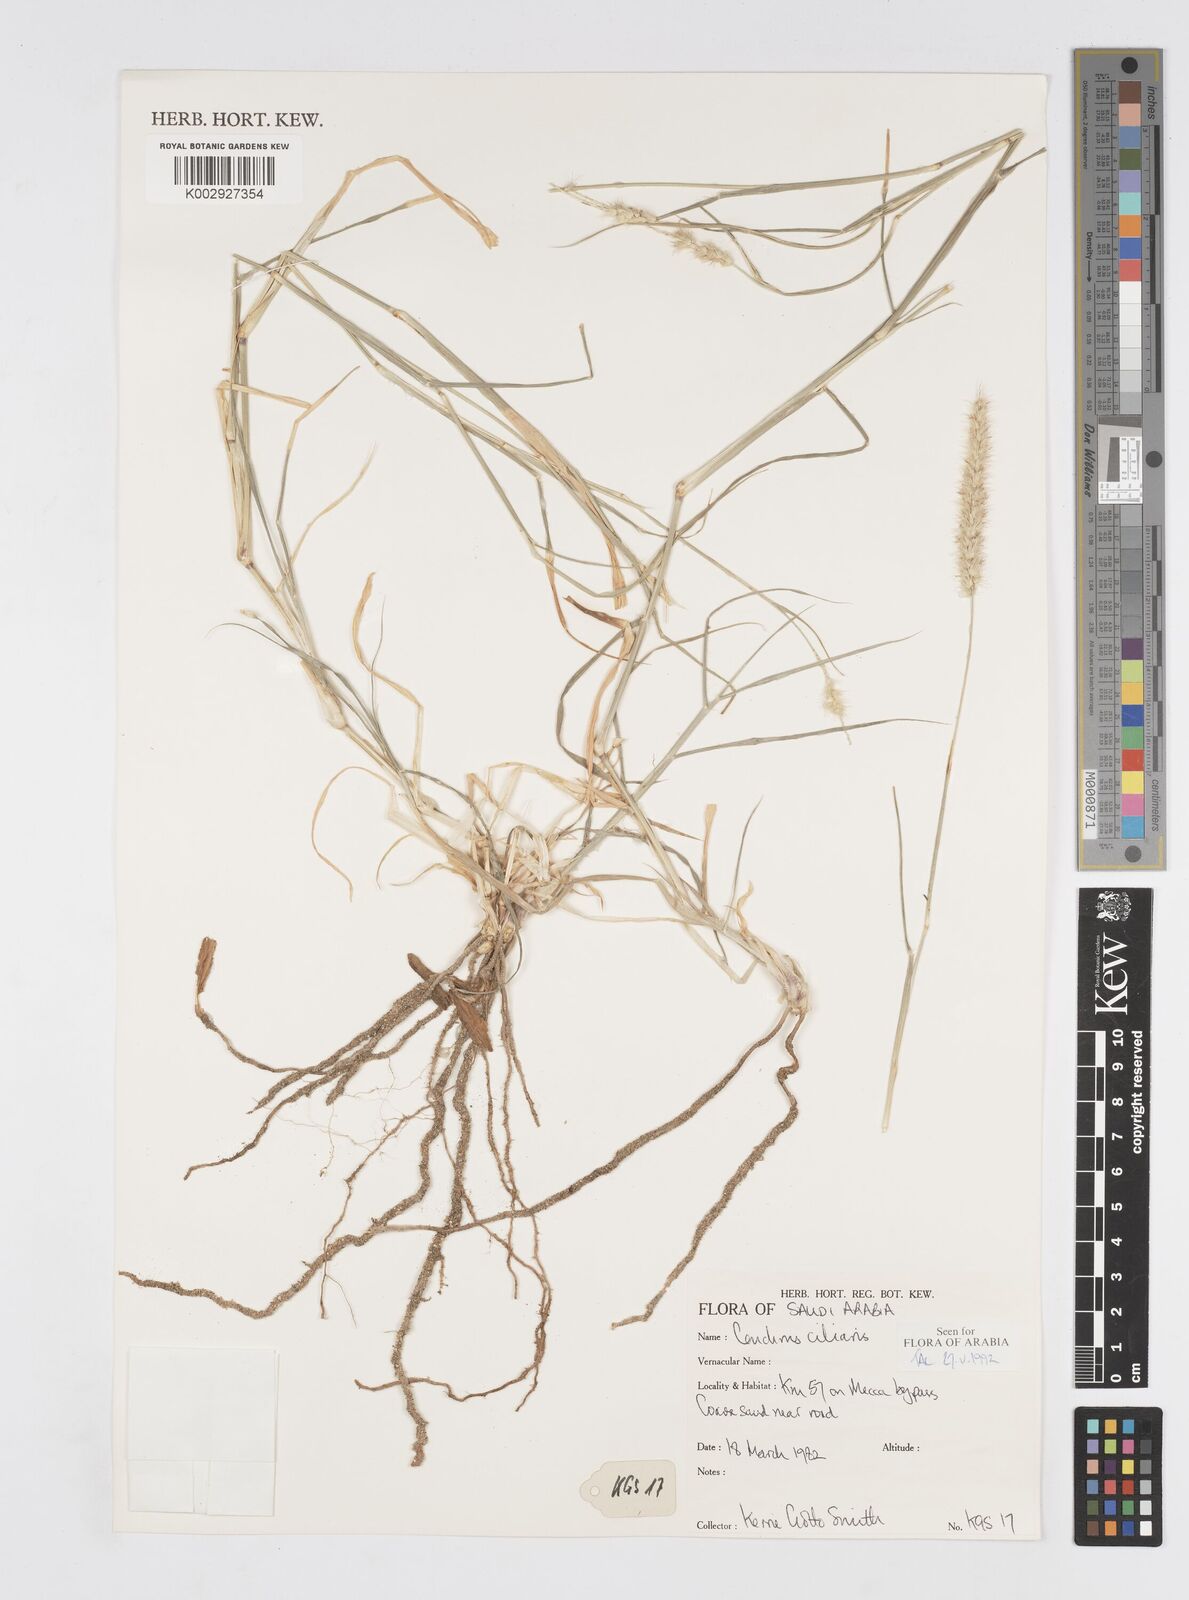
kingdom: Plantae
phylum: Tracheophyta
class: Liliopsida
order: Poales
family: Poaceae
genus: Cenchrus
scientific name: Cenchrus ciliaris
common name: Buffelgrass
